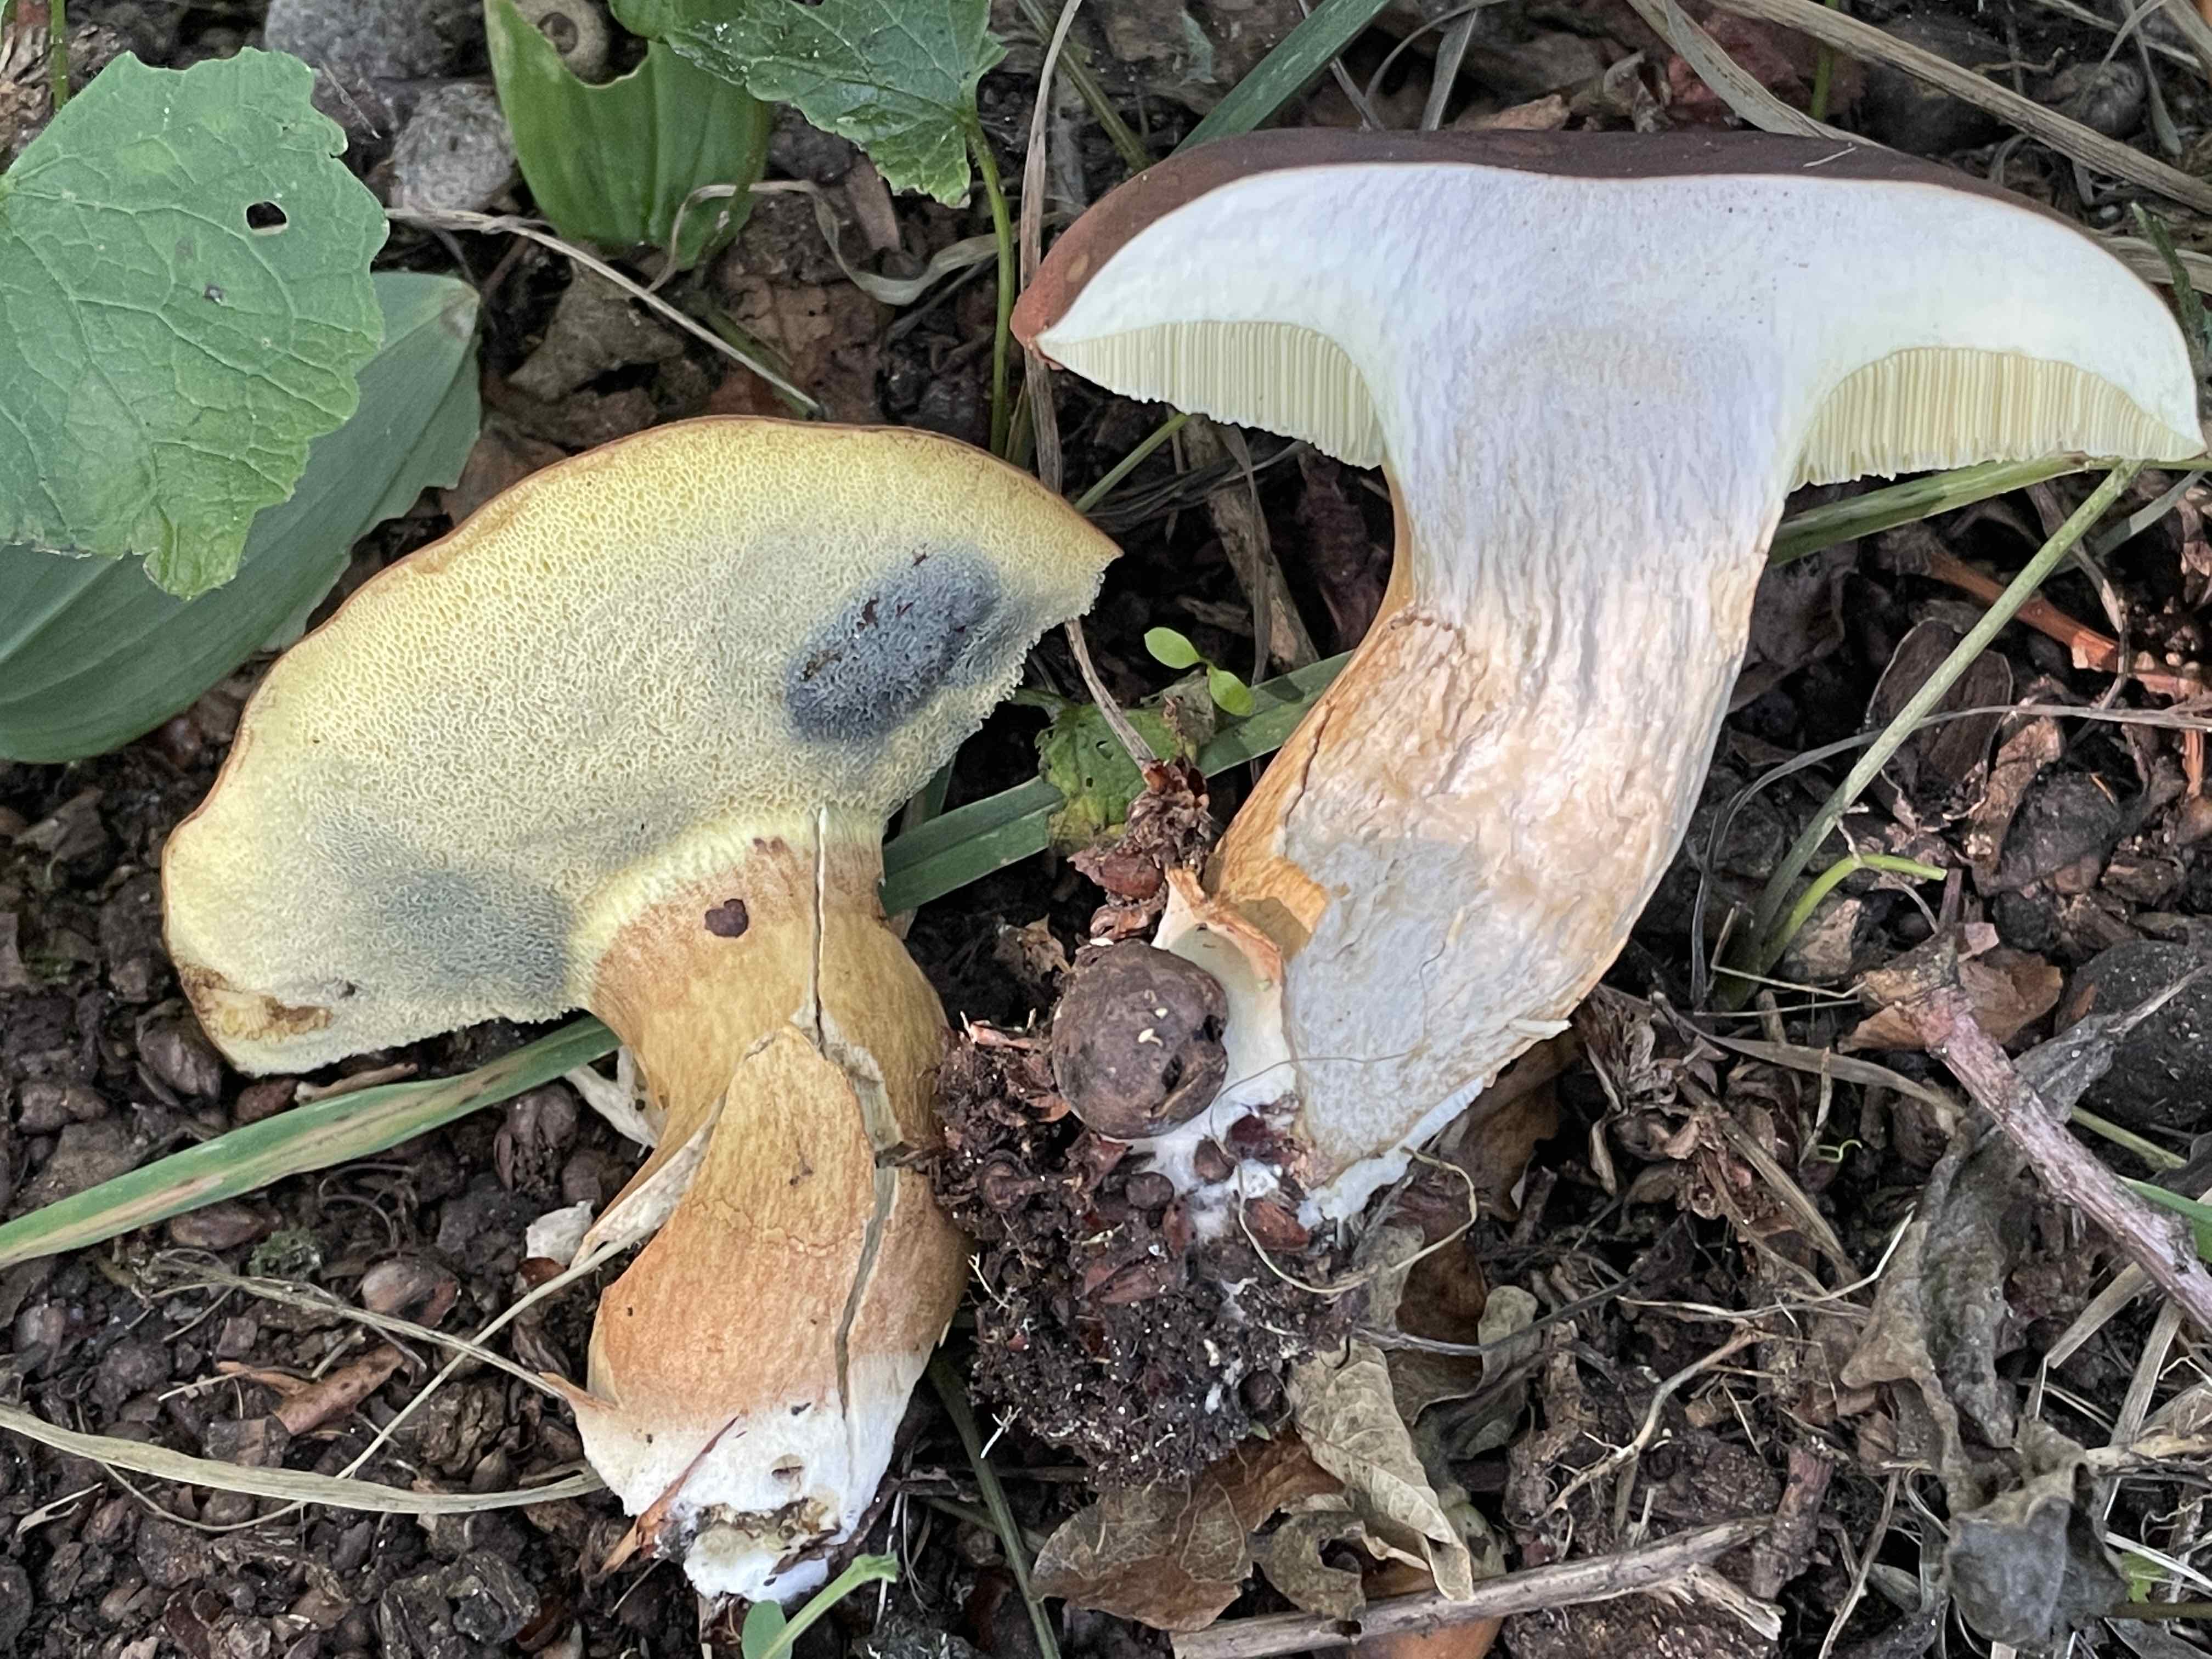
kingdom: Fungi
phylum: Basidiomycota
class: Agaricomycetes
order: Boletales
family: Boletaceae
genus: Imleria
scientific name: Imleria badia
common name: brunstokket rørhat
